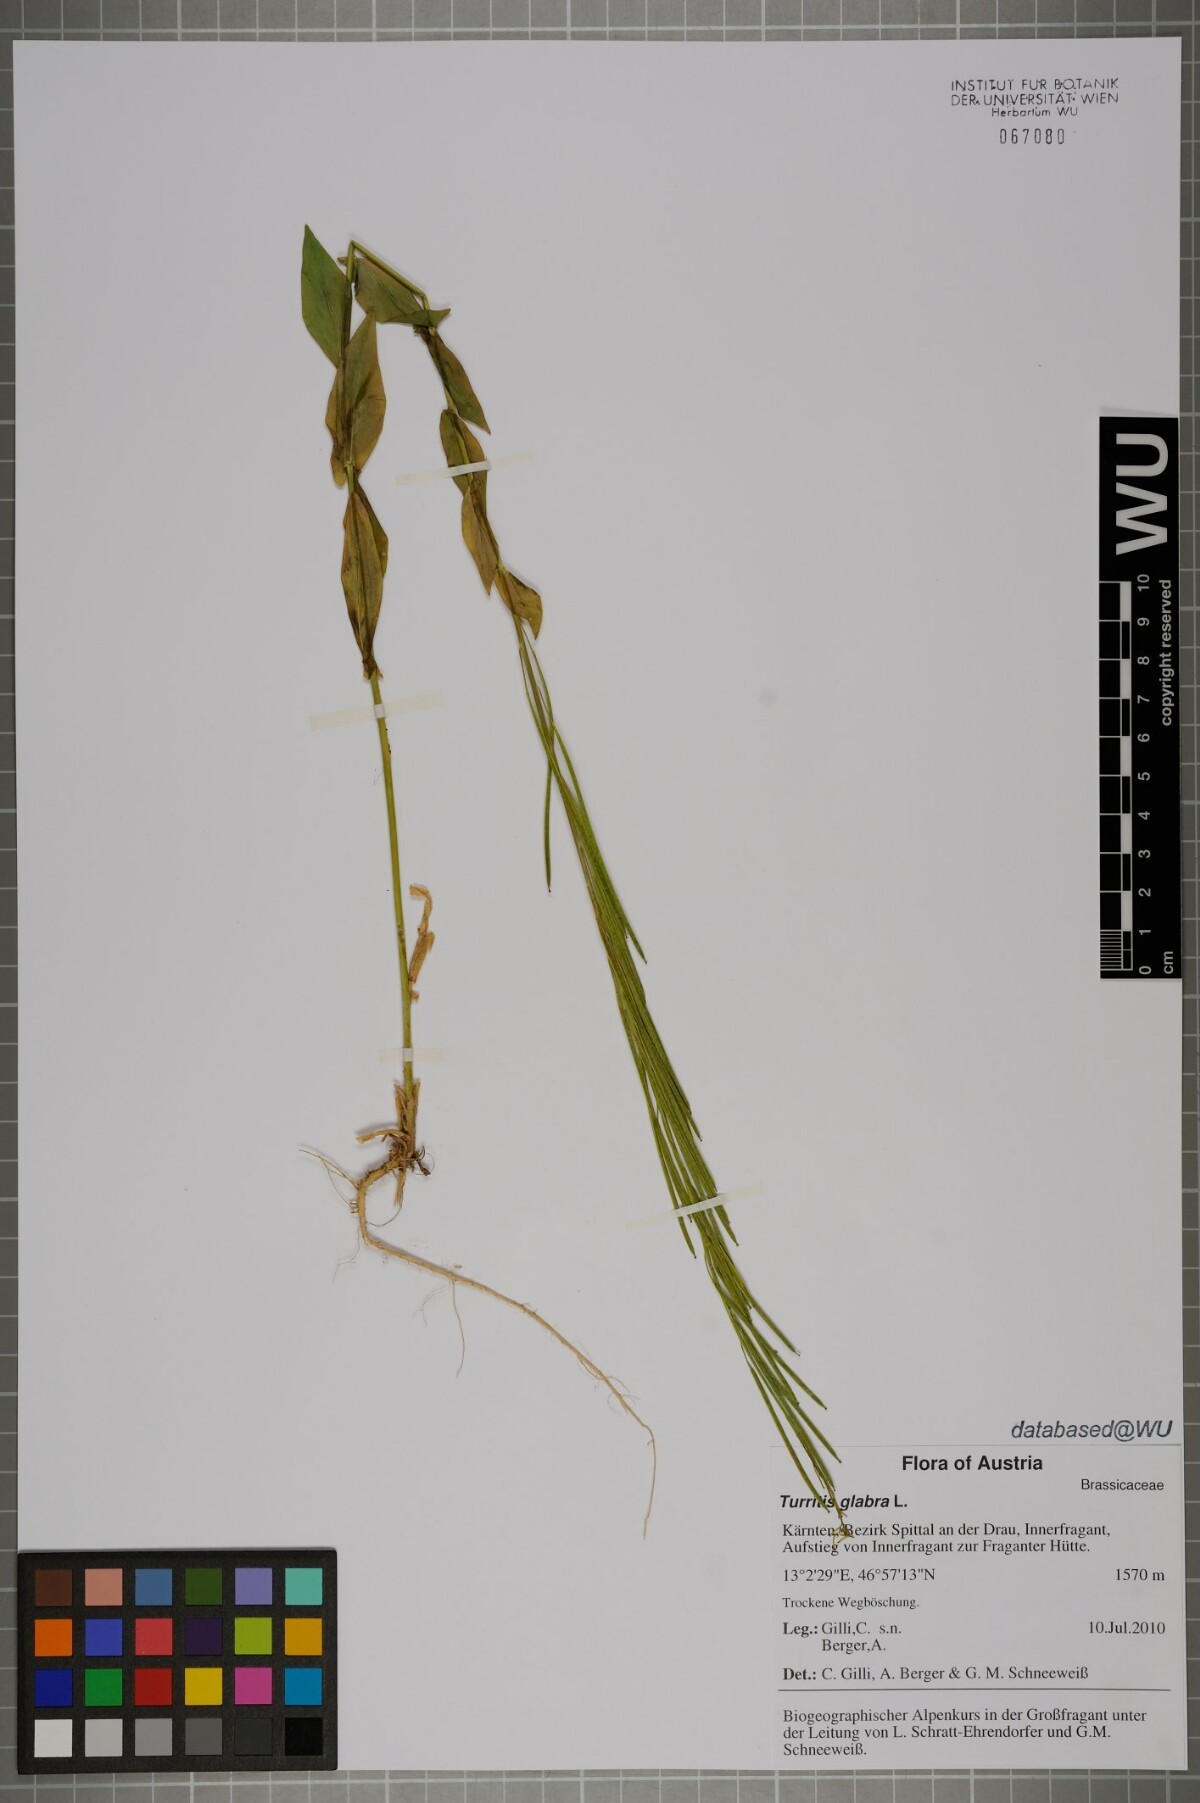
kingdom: Plantae
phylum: Tracheophyta
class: Magnoliopsida
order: Brassicales
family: Brassicaceae
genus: Turritis
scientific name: Turritis glabra
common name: Tower rockcress
